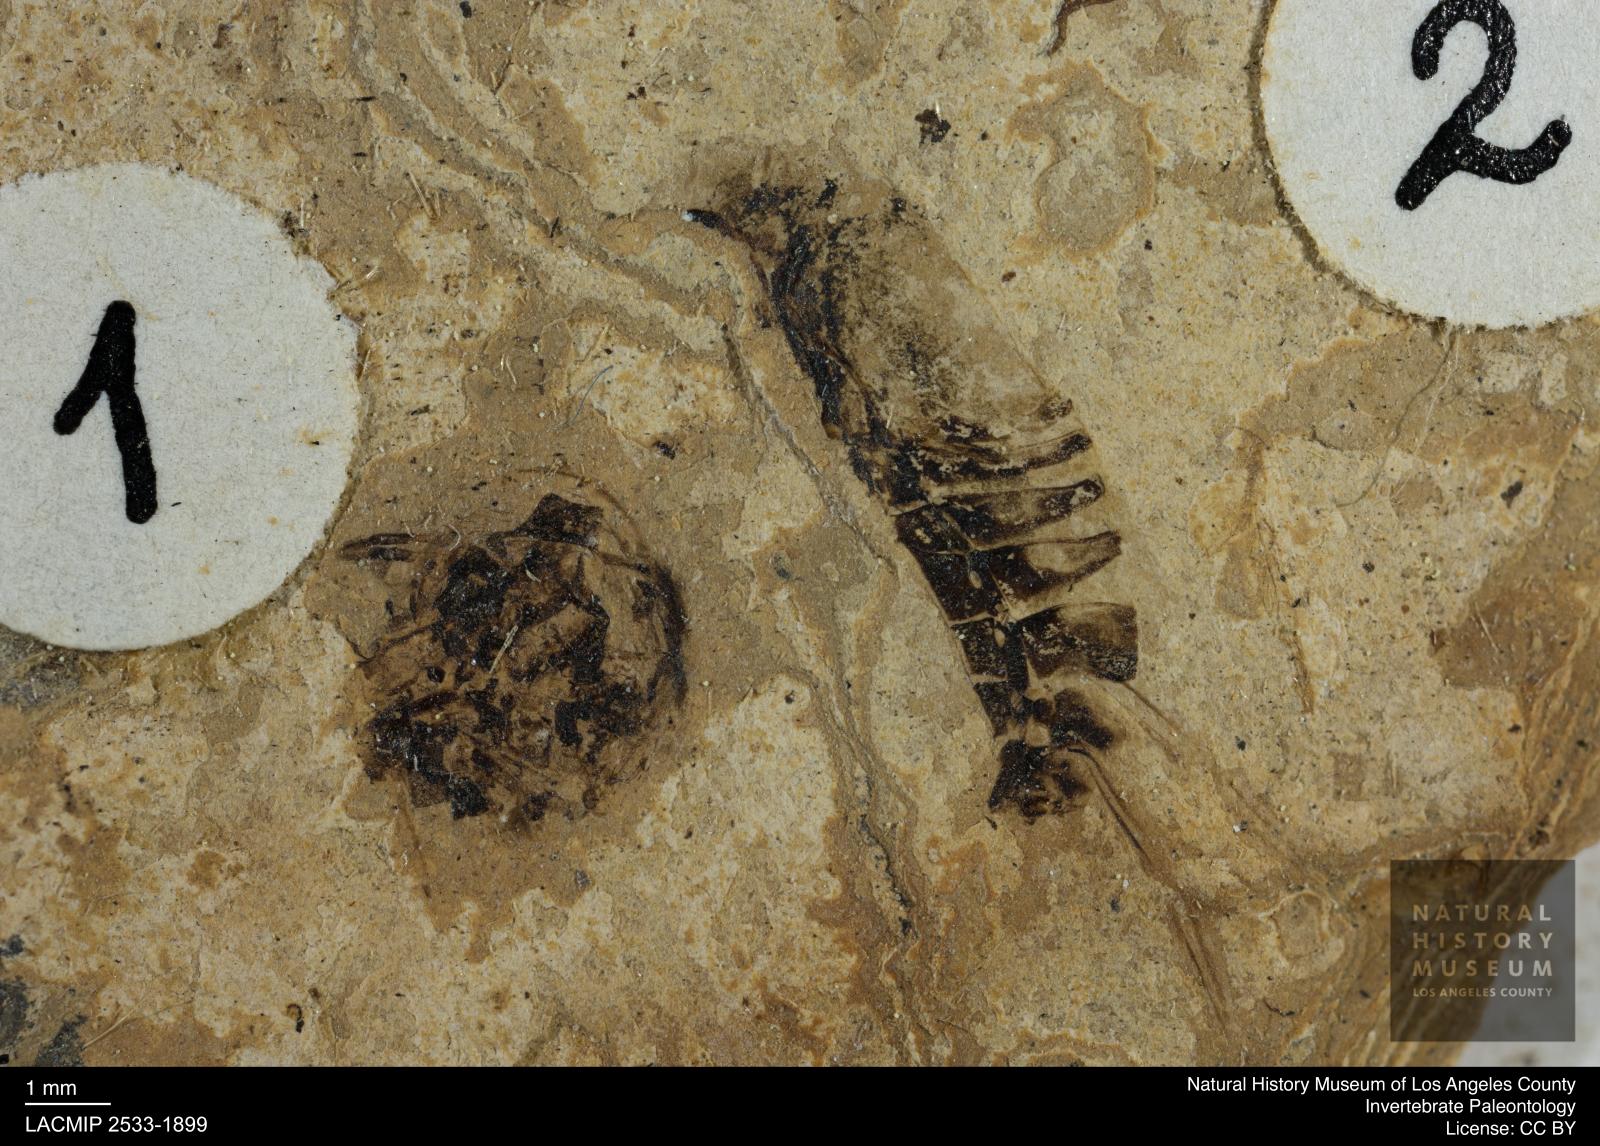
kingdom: Animalia
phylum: Arthropoda
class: Insecta
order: Hemiptera
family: Notonectidae
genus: Anisops
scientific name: Anisops Notonecta deichmuelleri
